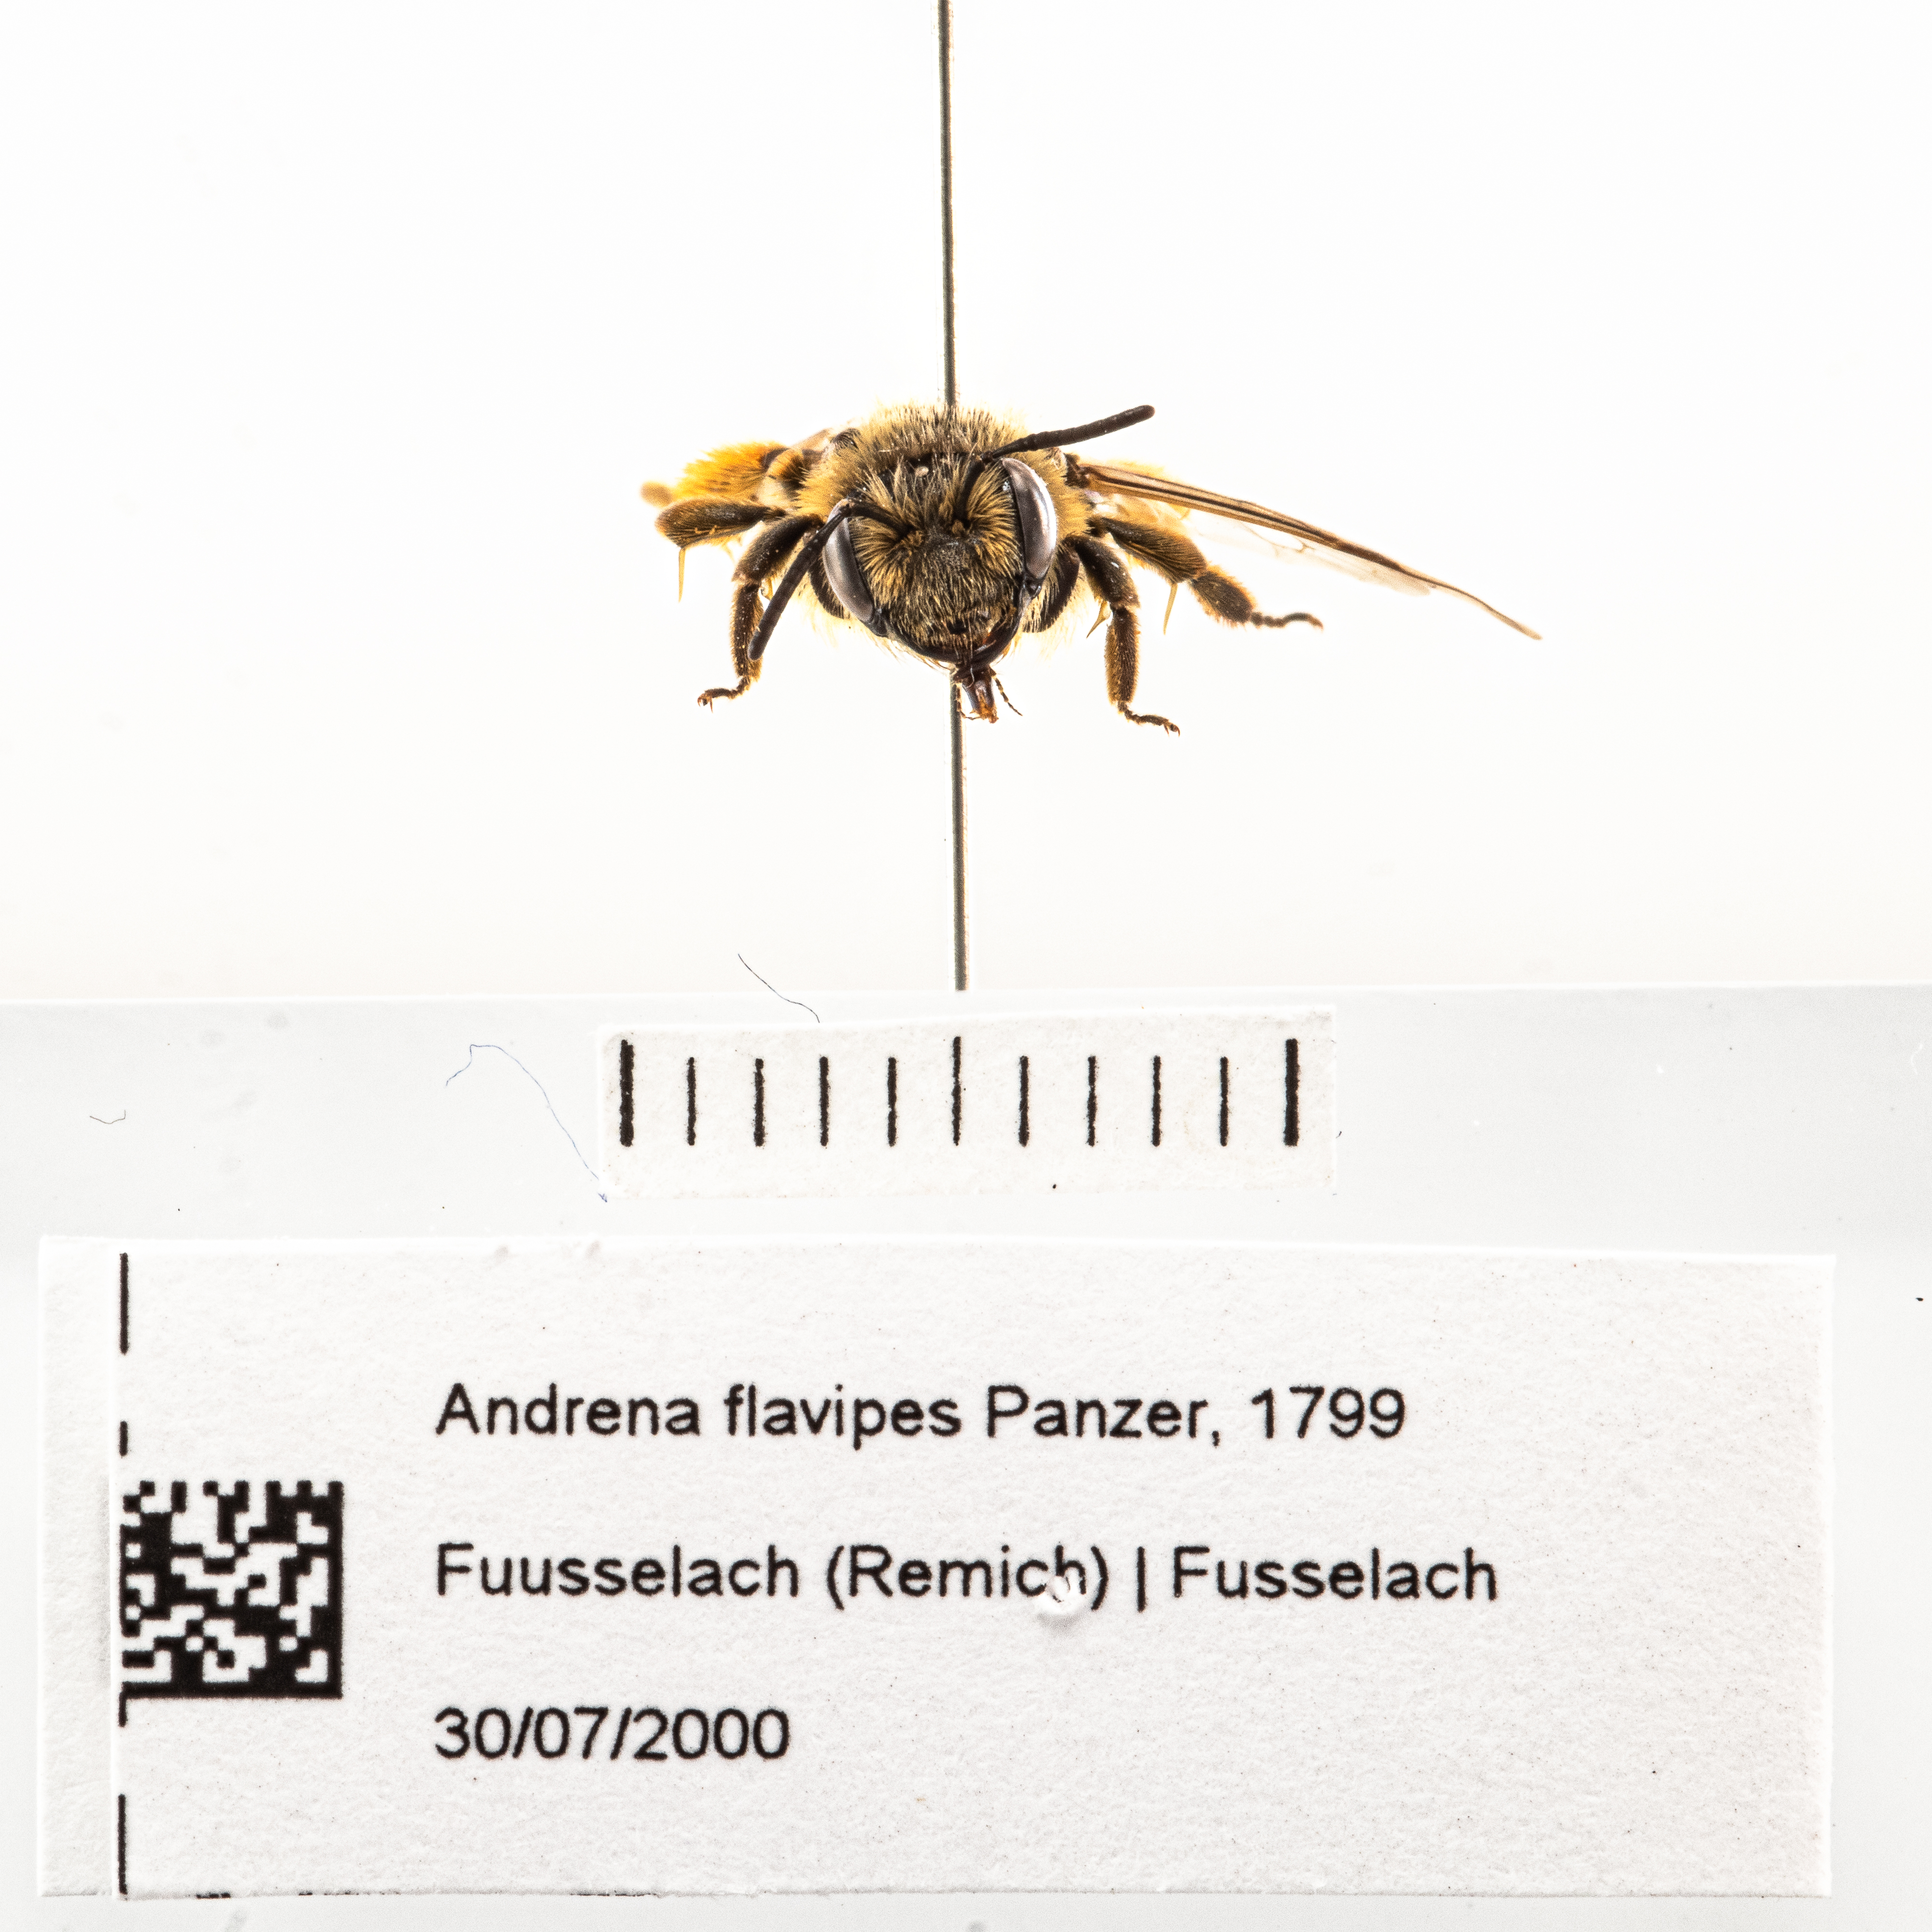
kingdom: Animalia
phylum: Arthropoda
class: Insecta
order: Hymenoptera
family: Andrenidae
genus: Andrena
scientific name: Andrena flavipes
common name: Yellow-legged mining bee
